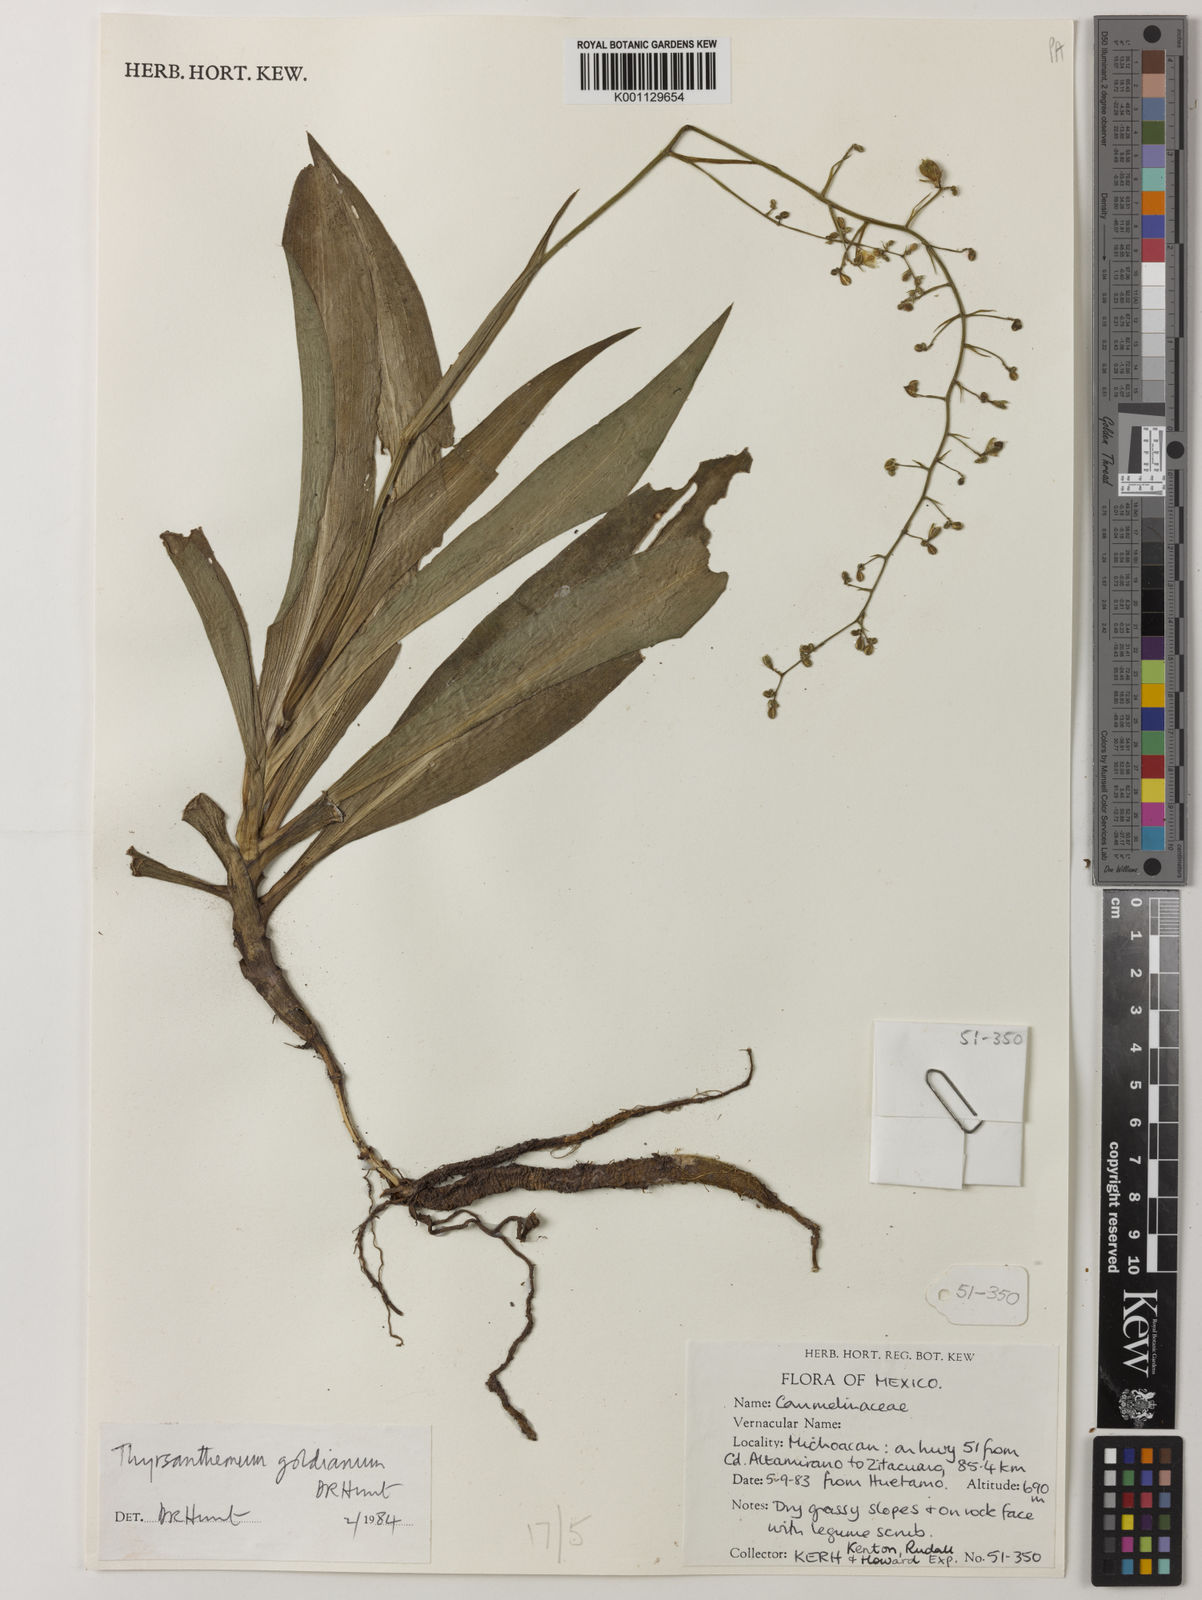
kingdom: Plantae
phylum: Tracheophyta
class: Liliopsida
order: Commelinales
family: Commelinaceae
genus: Thyrsanthemum
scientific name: Thyrsanthemum goldianum
